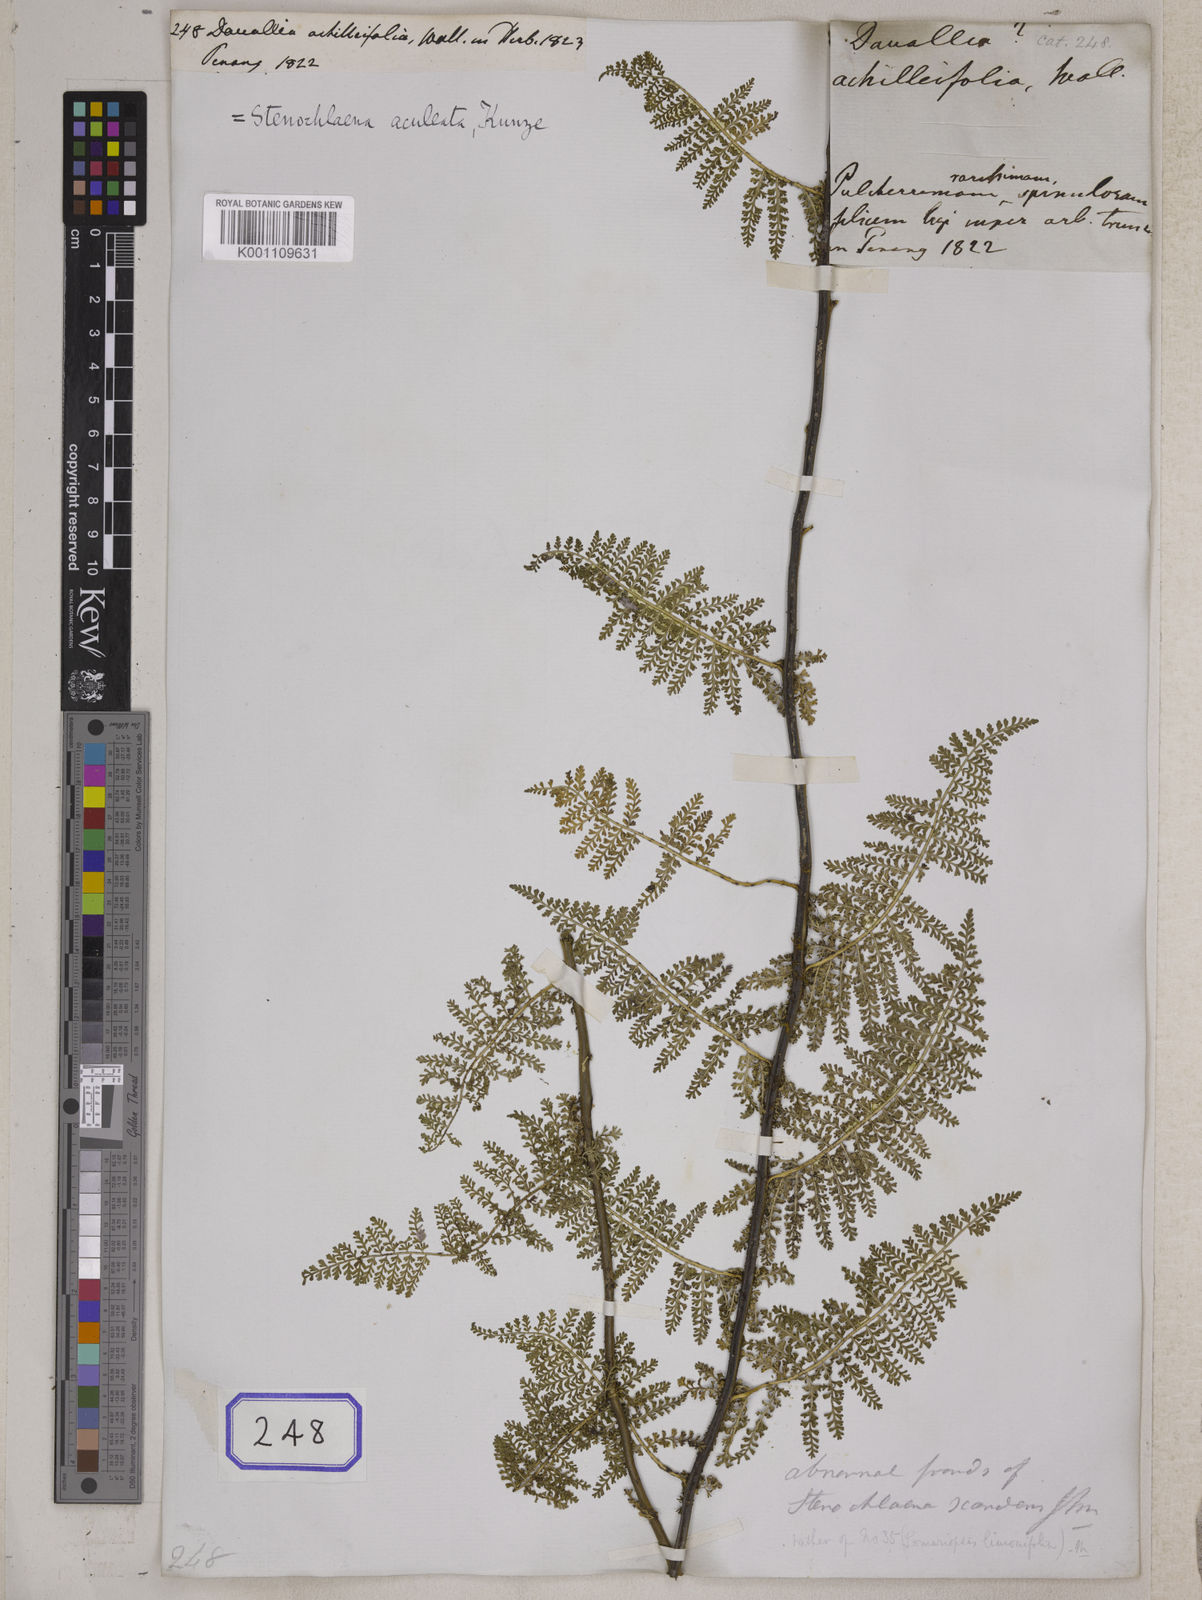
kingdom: Plantae
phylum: Tracheophyta
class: Polypodiopsida
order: Polypodiales
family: Dryopteridaceae
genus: Teratophyllum
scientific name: Teratophyllum aculeatum
